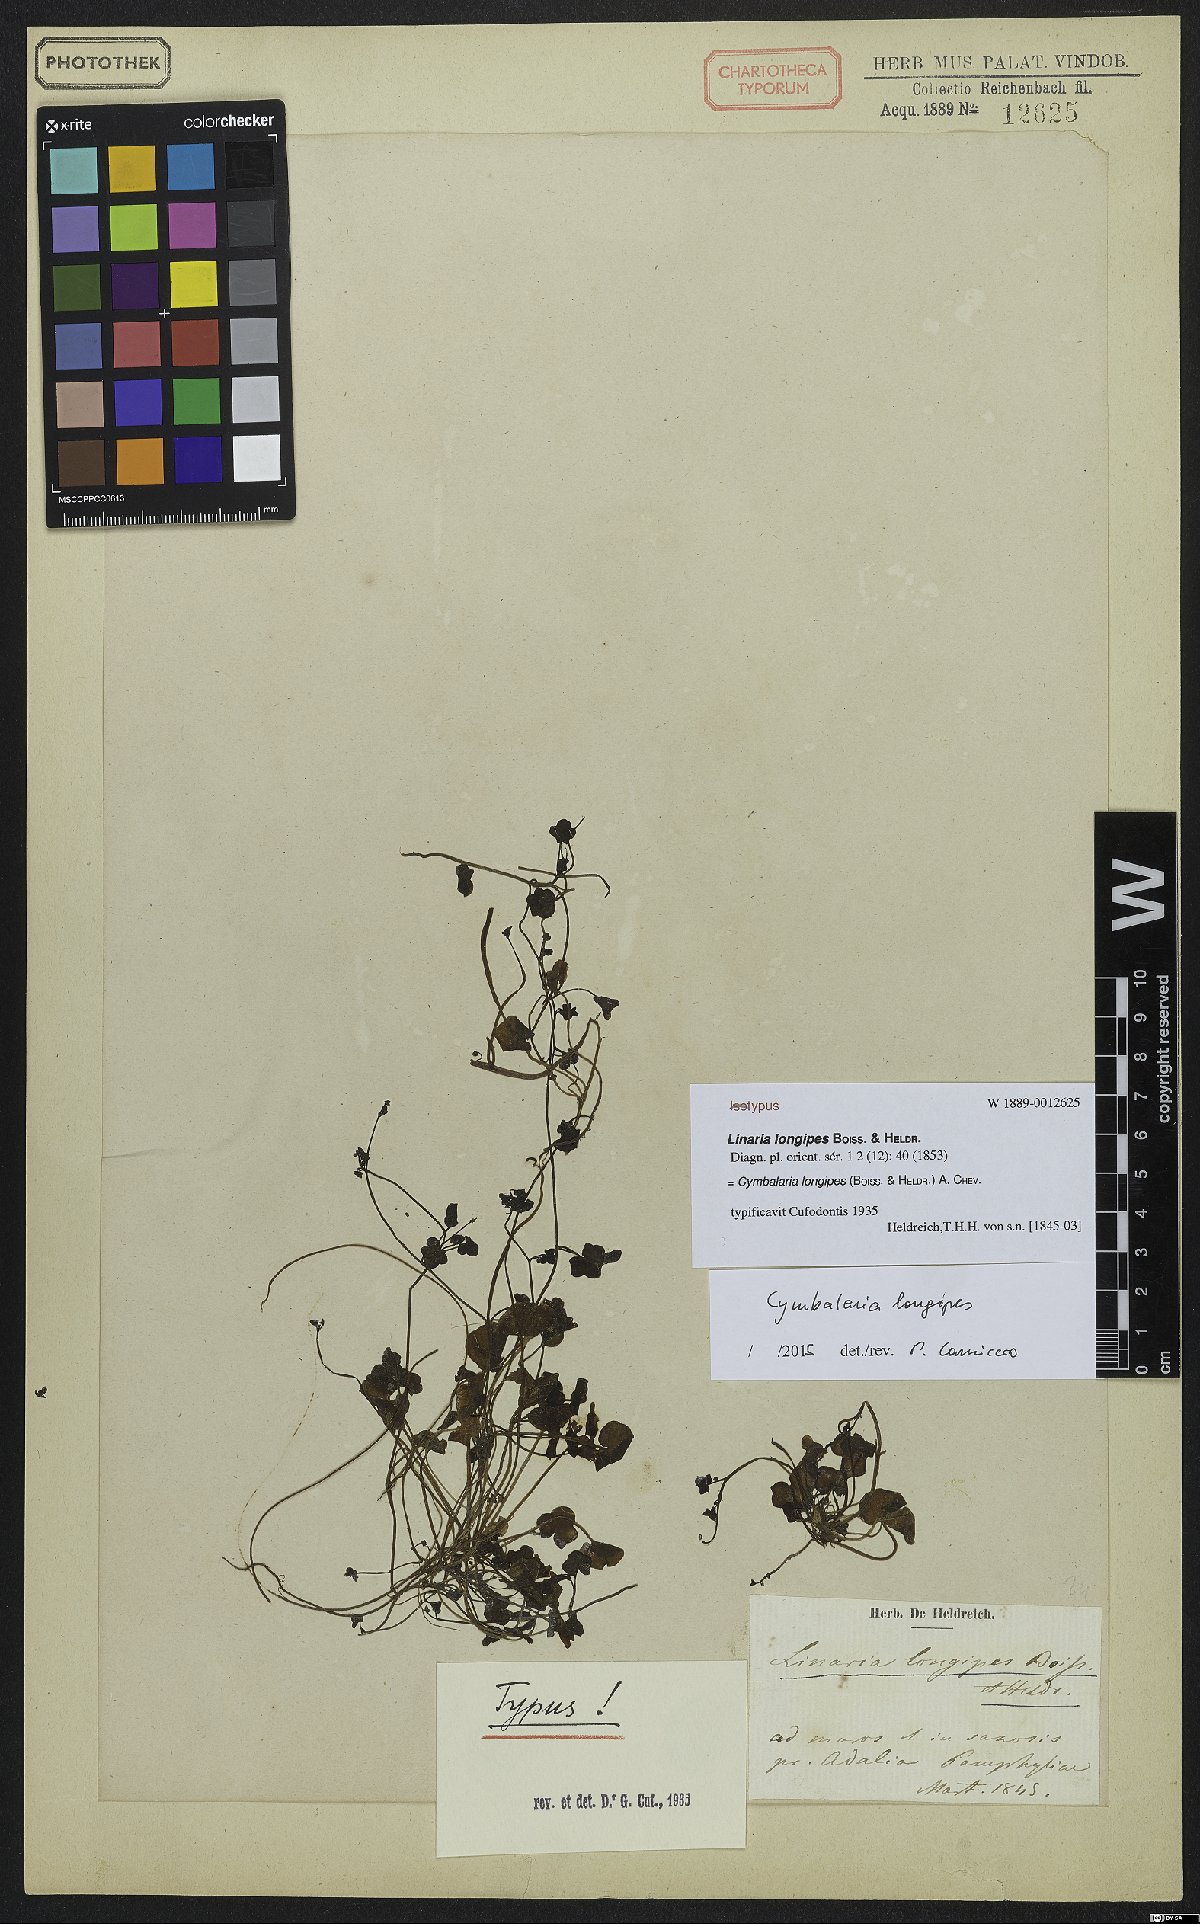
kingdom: Plantae
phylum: Tracheophyta
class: Magnoliopsida
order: Lamiales
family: Plantaginaceae
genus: Cymbalaria
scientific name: Cymbalaria longipes
